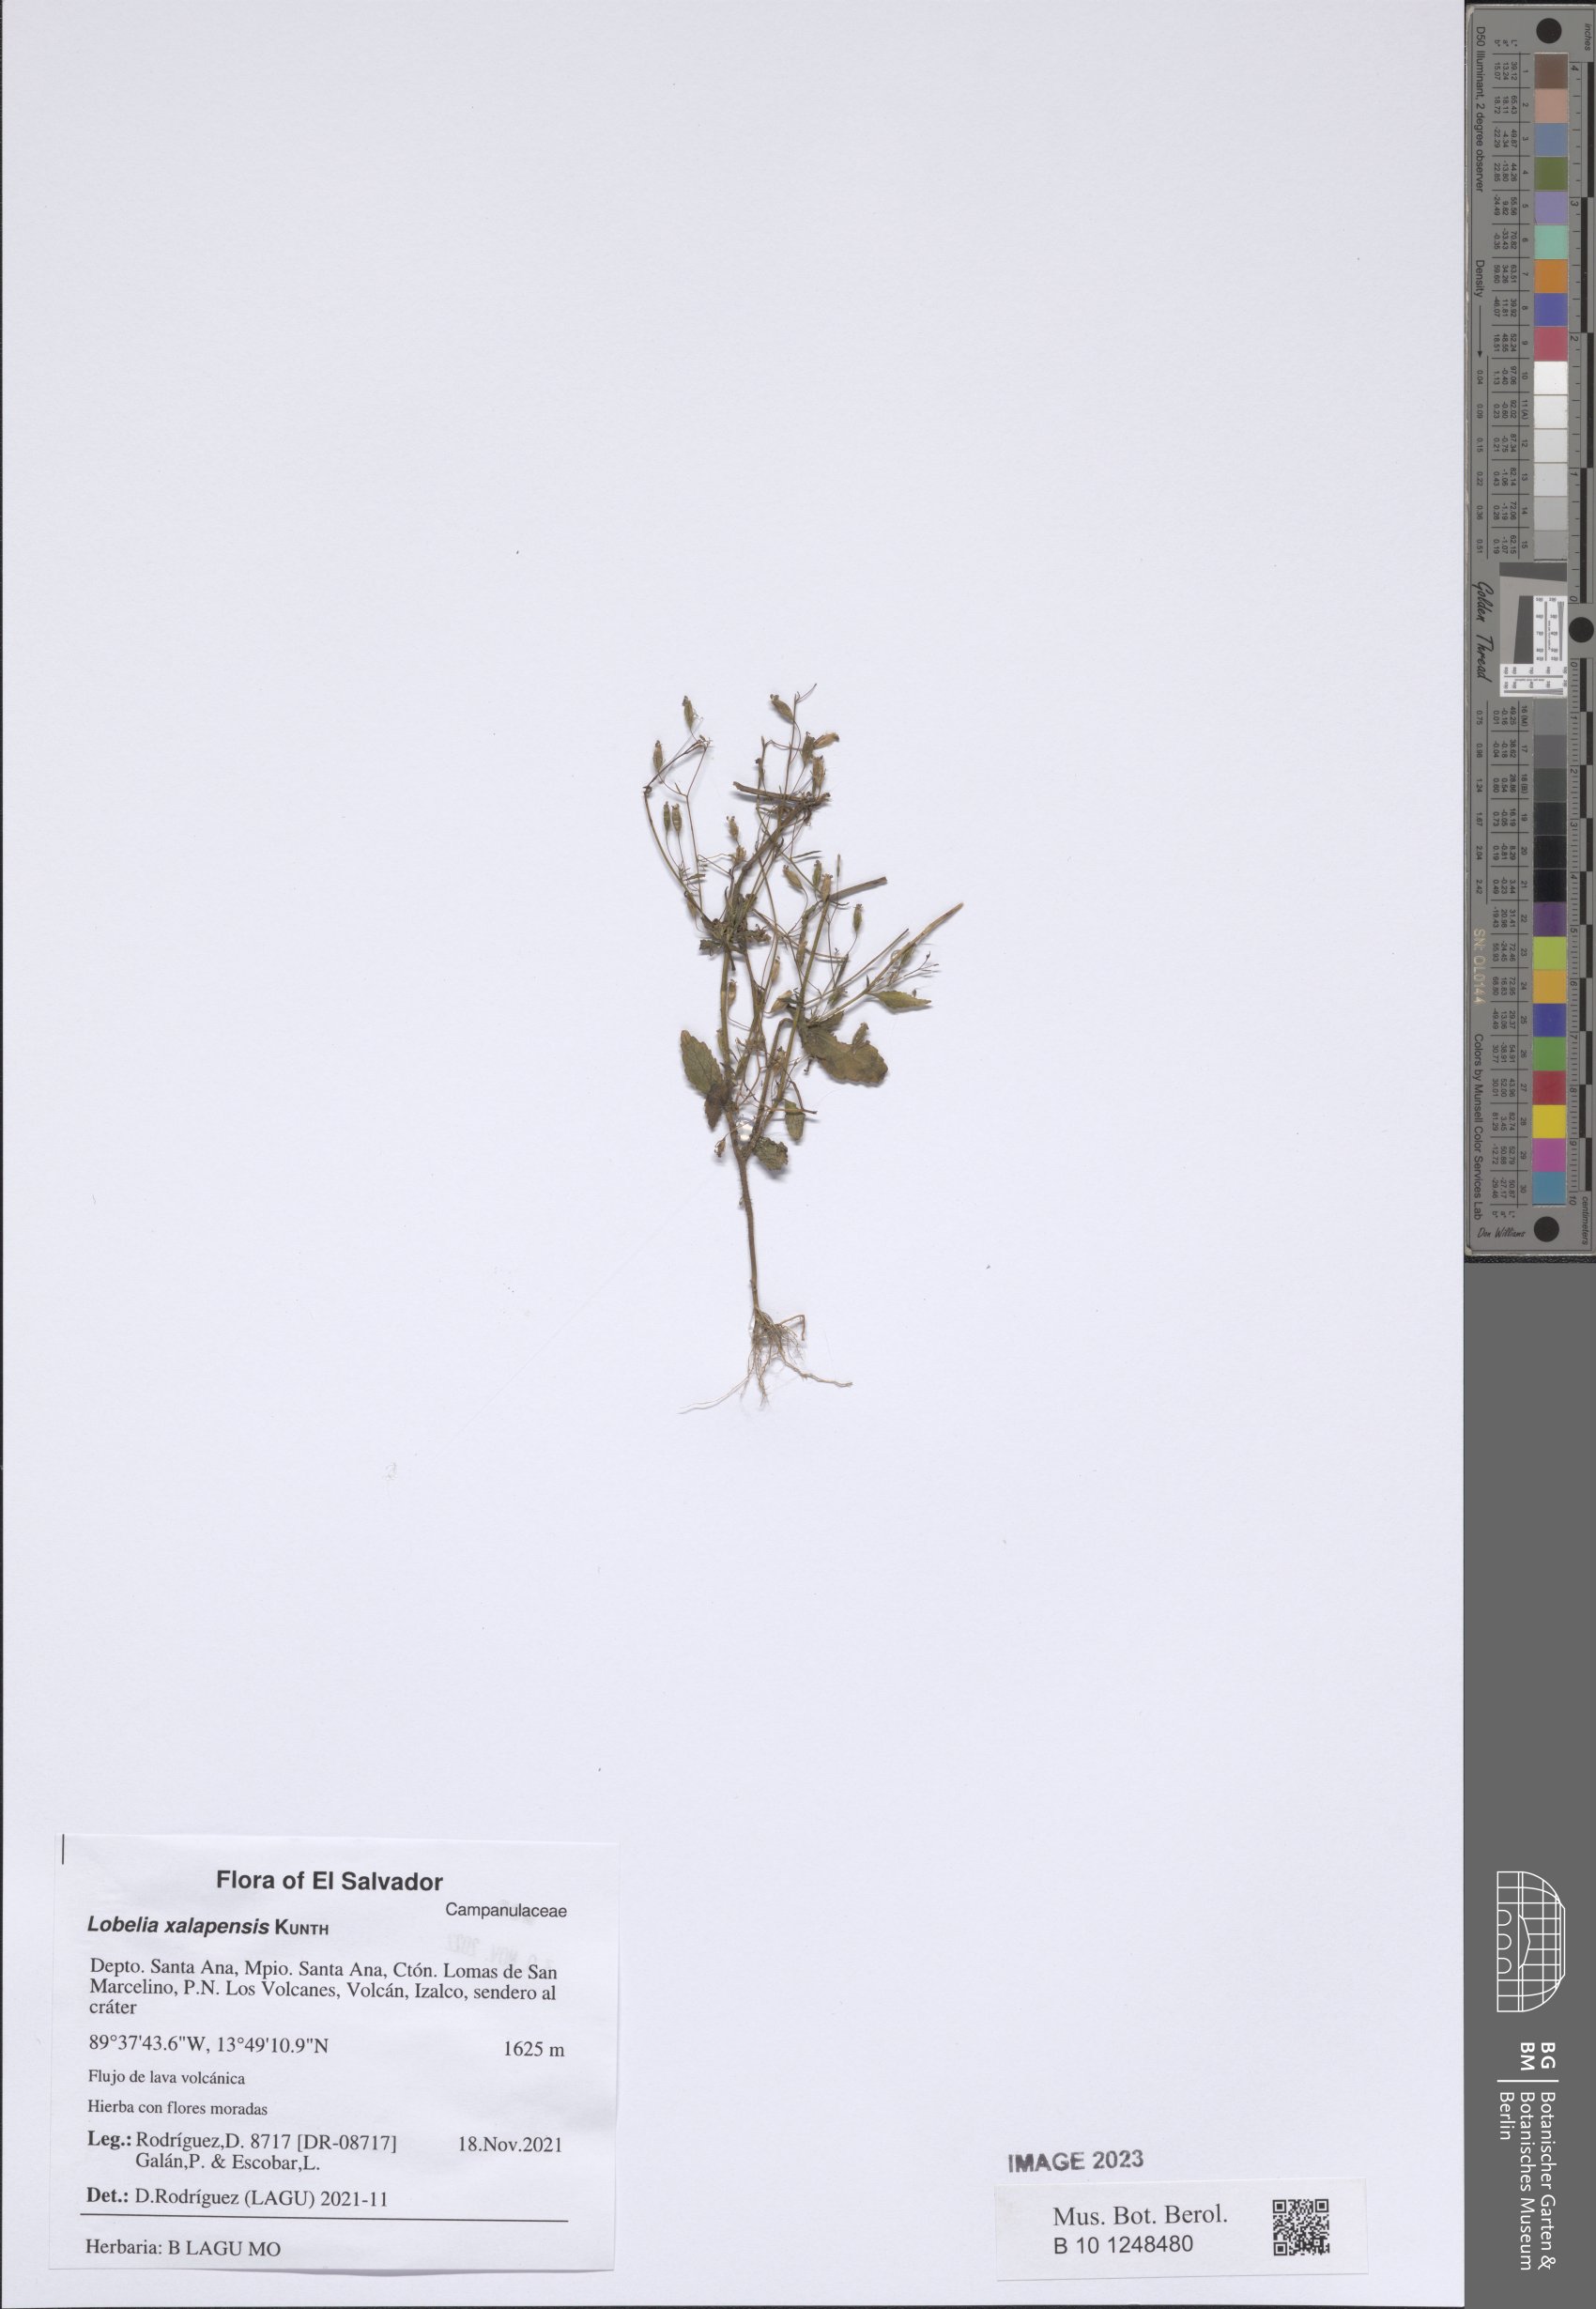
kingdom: Plantae
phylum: Tracheophyta
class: Magnoliopsida
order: Asterales
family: Campanulaceae
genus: Lobelia
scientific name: Lobelia xalapensis
